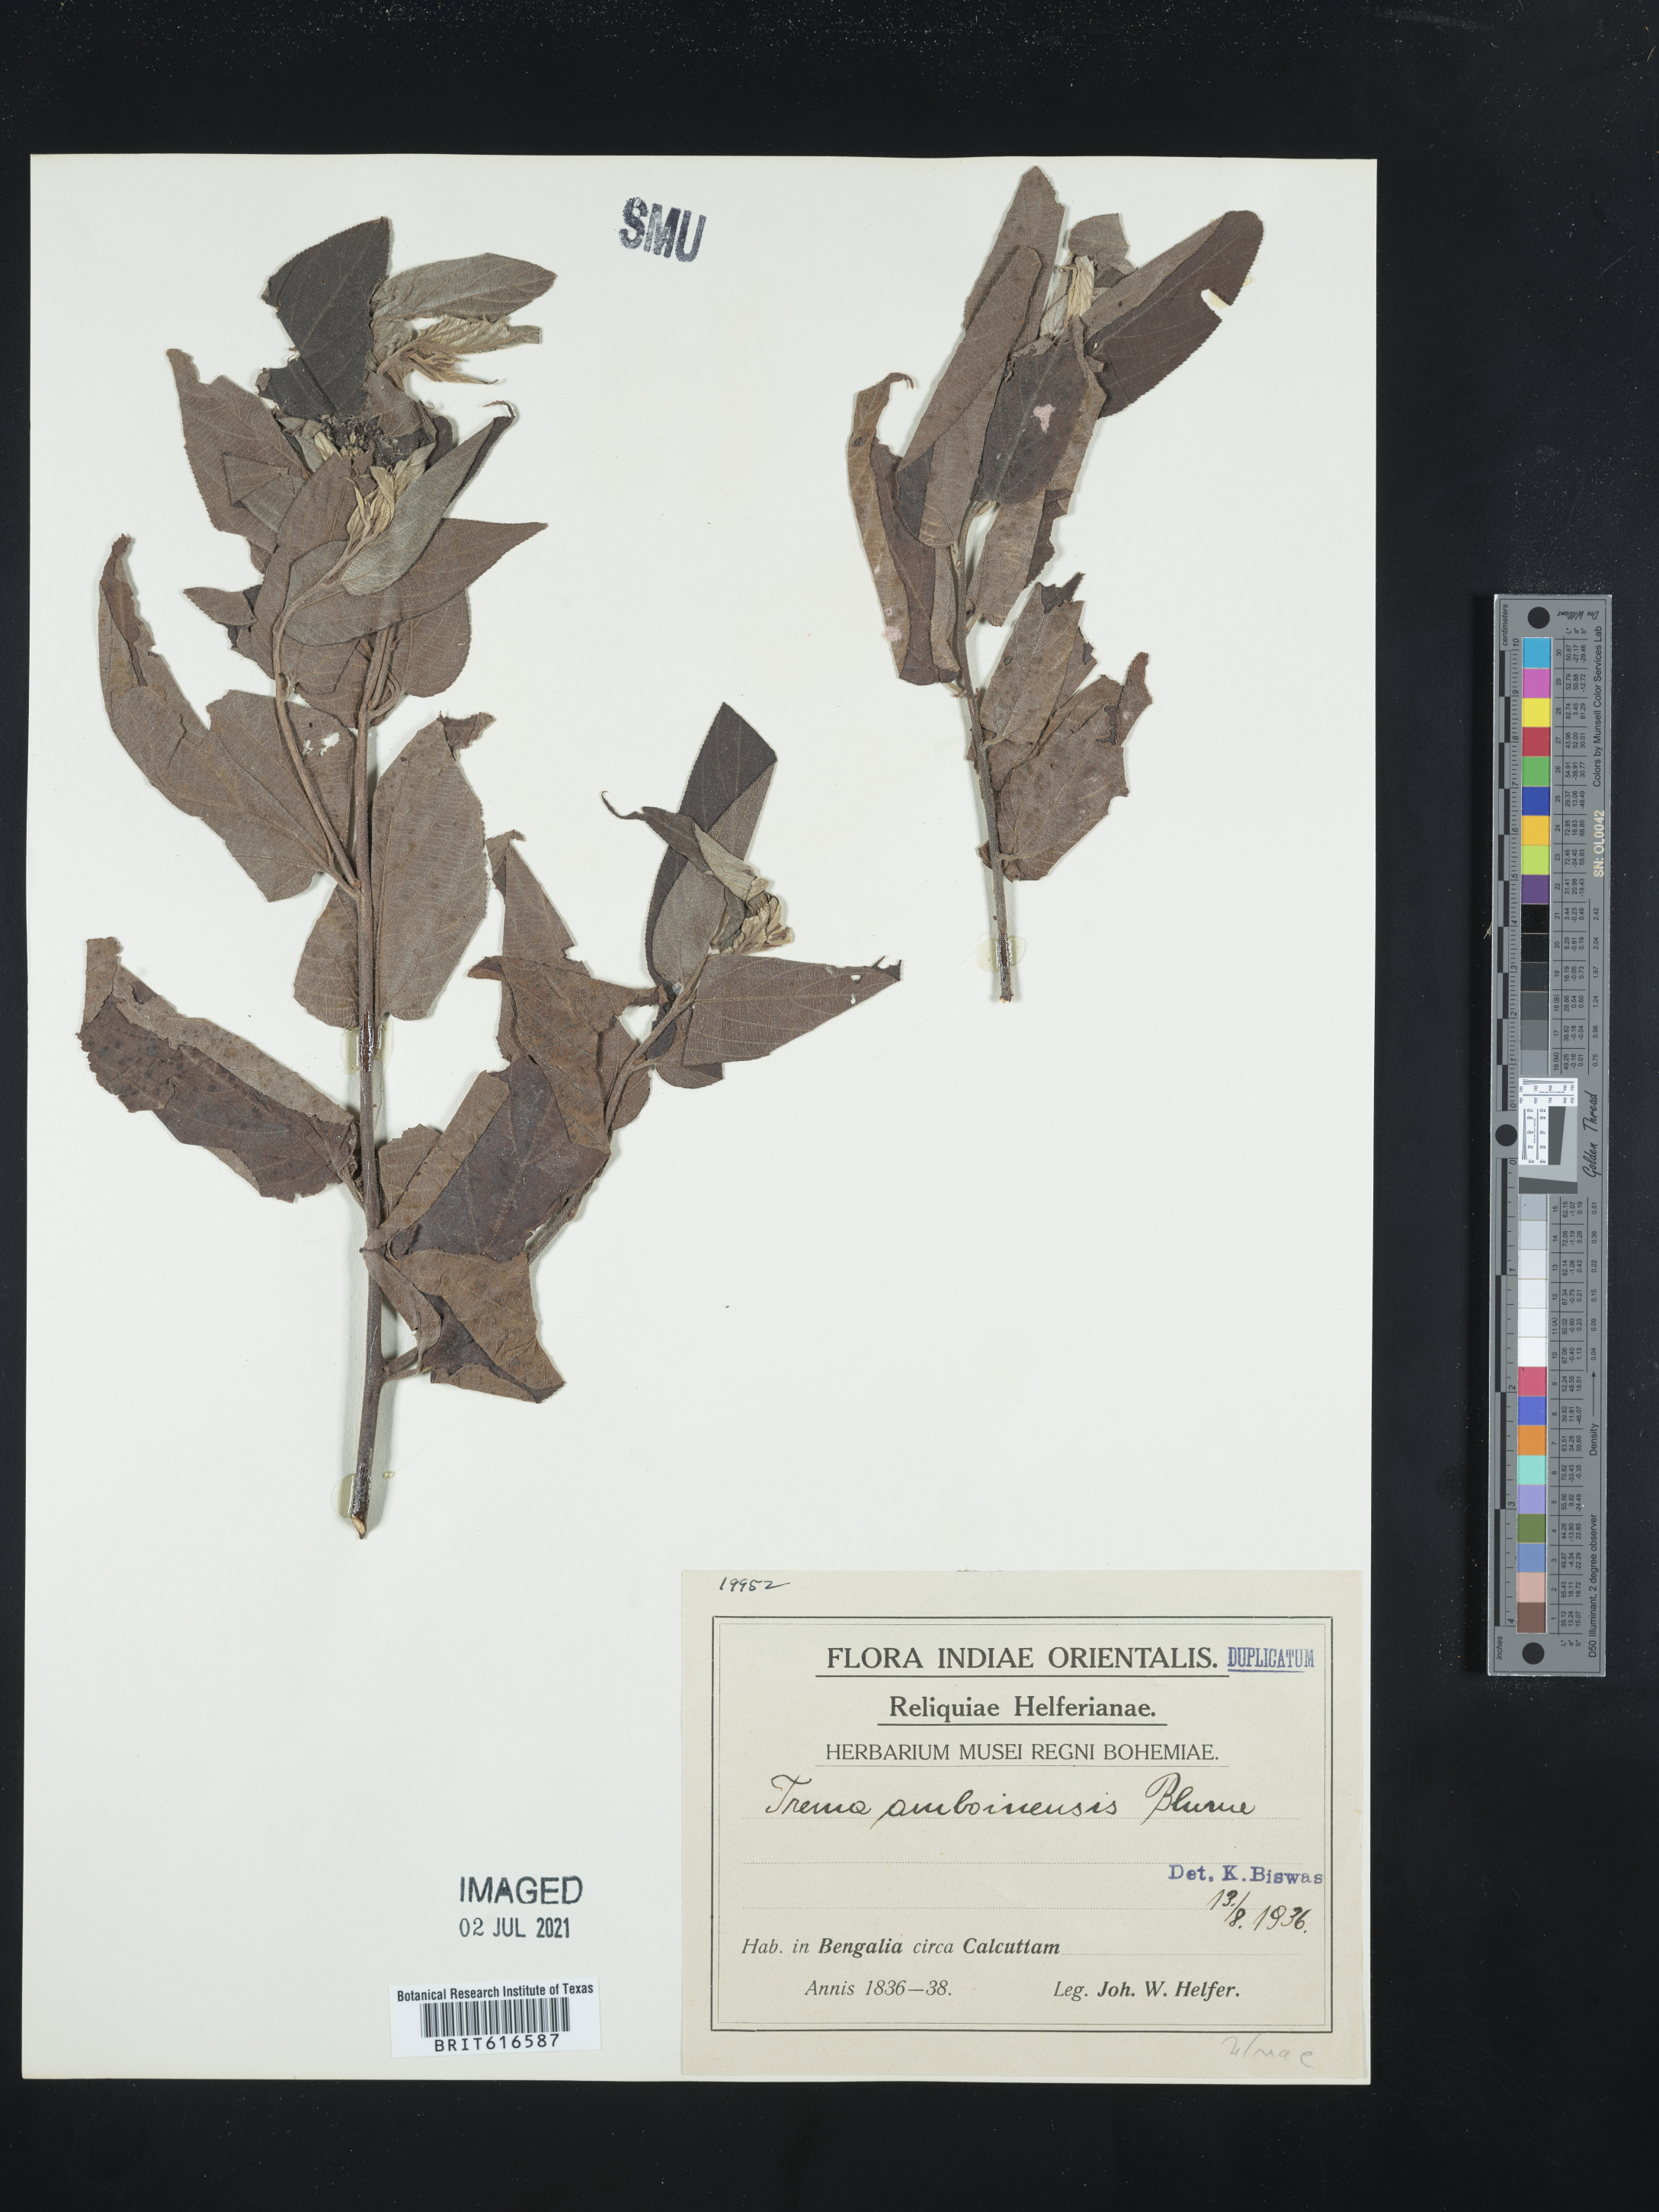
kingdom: Plantae
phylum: Tracheophyta
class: Magnoliopsida
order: Rosales
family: Cannabaceae
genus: Trema
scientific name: Trema tomentosum
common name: Peach-leaf-poisonbush
